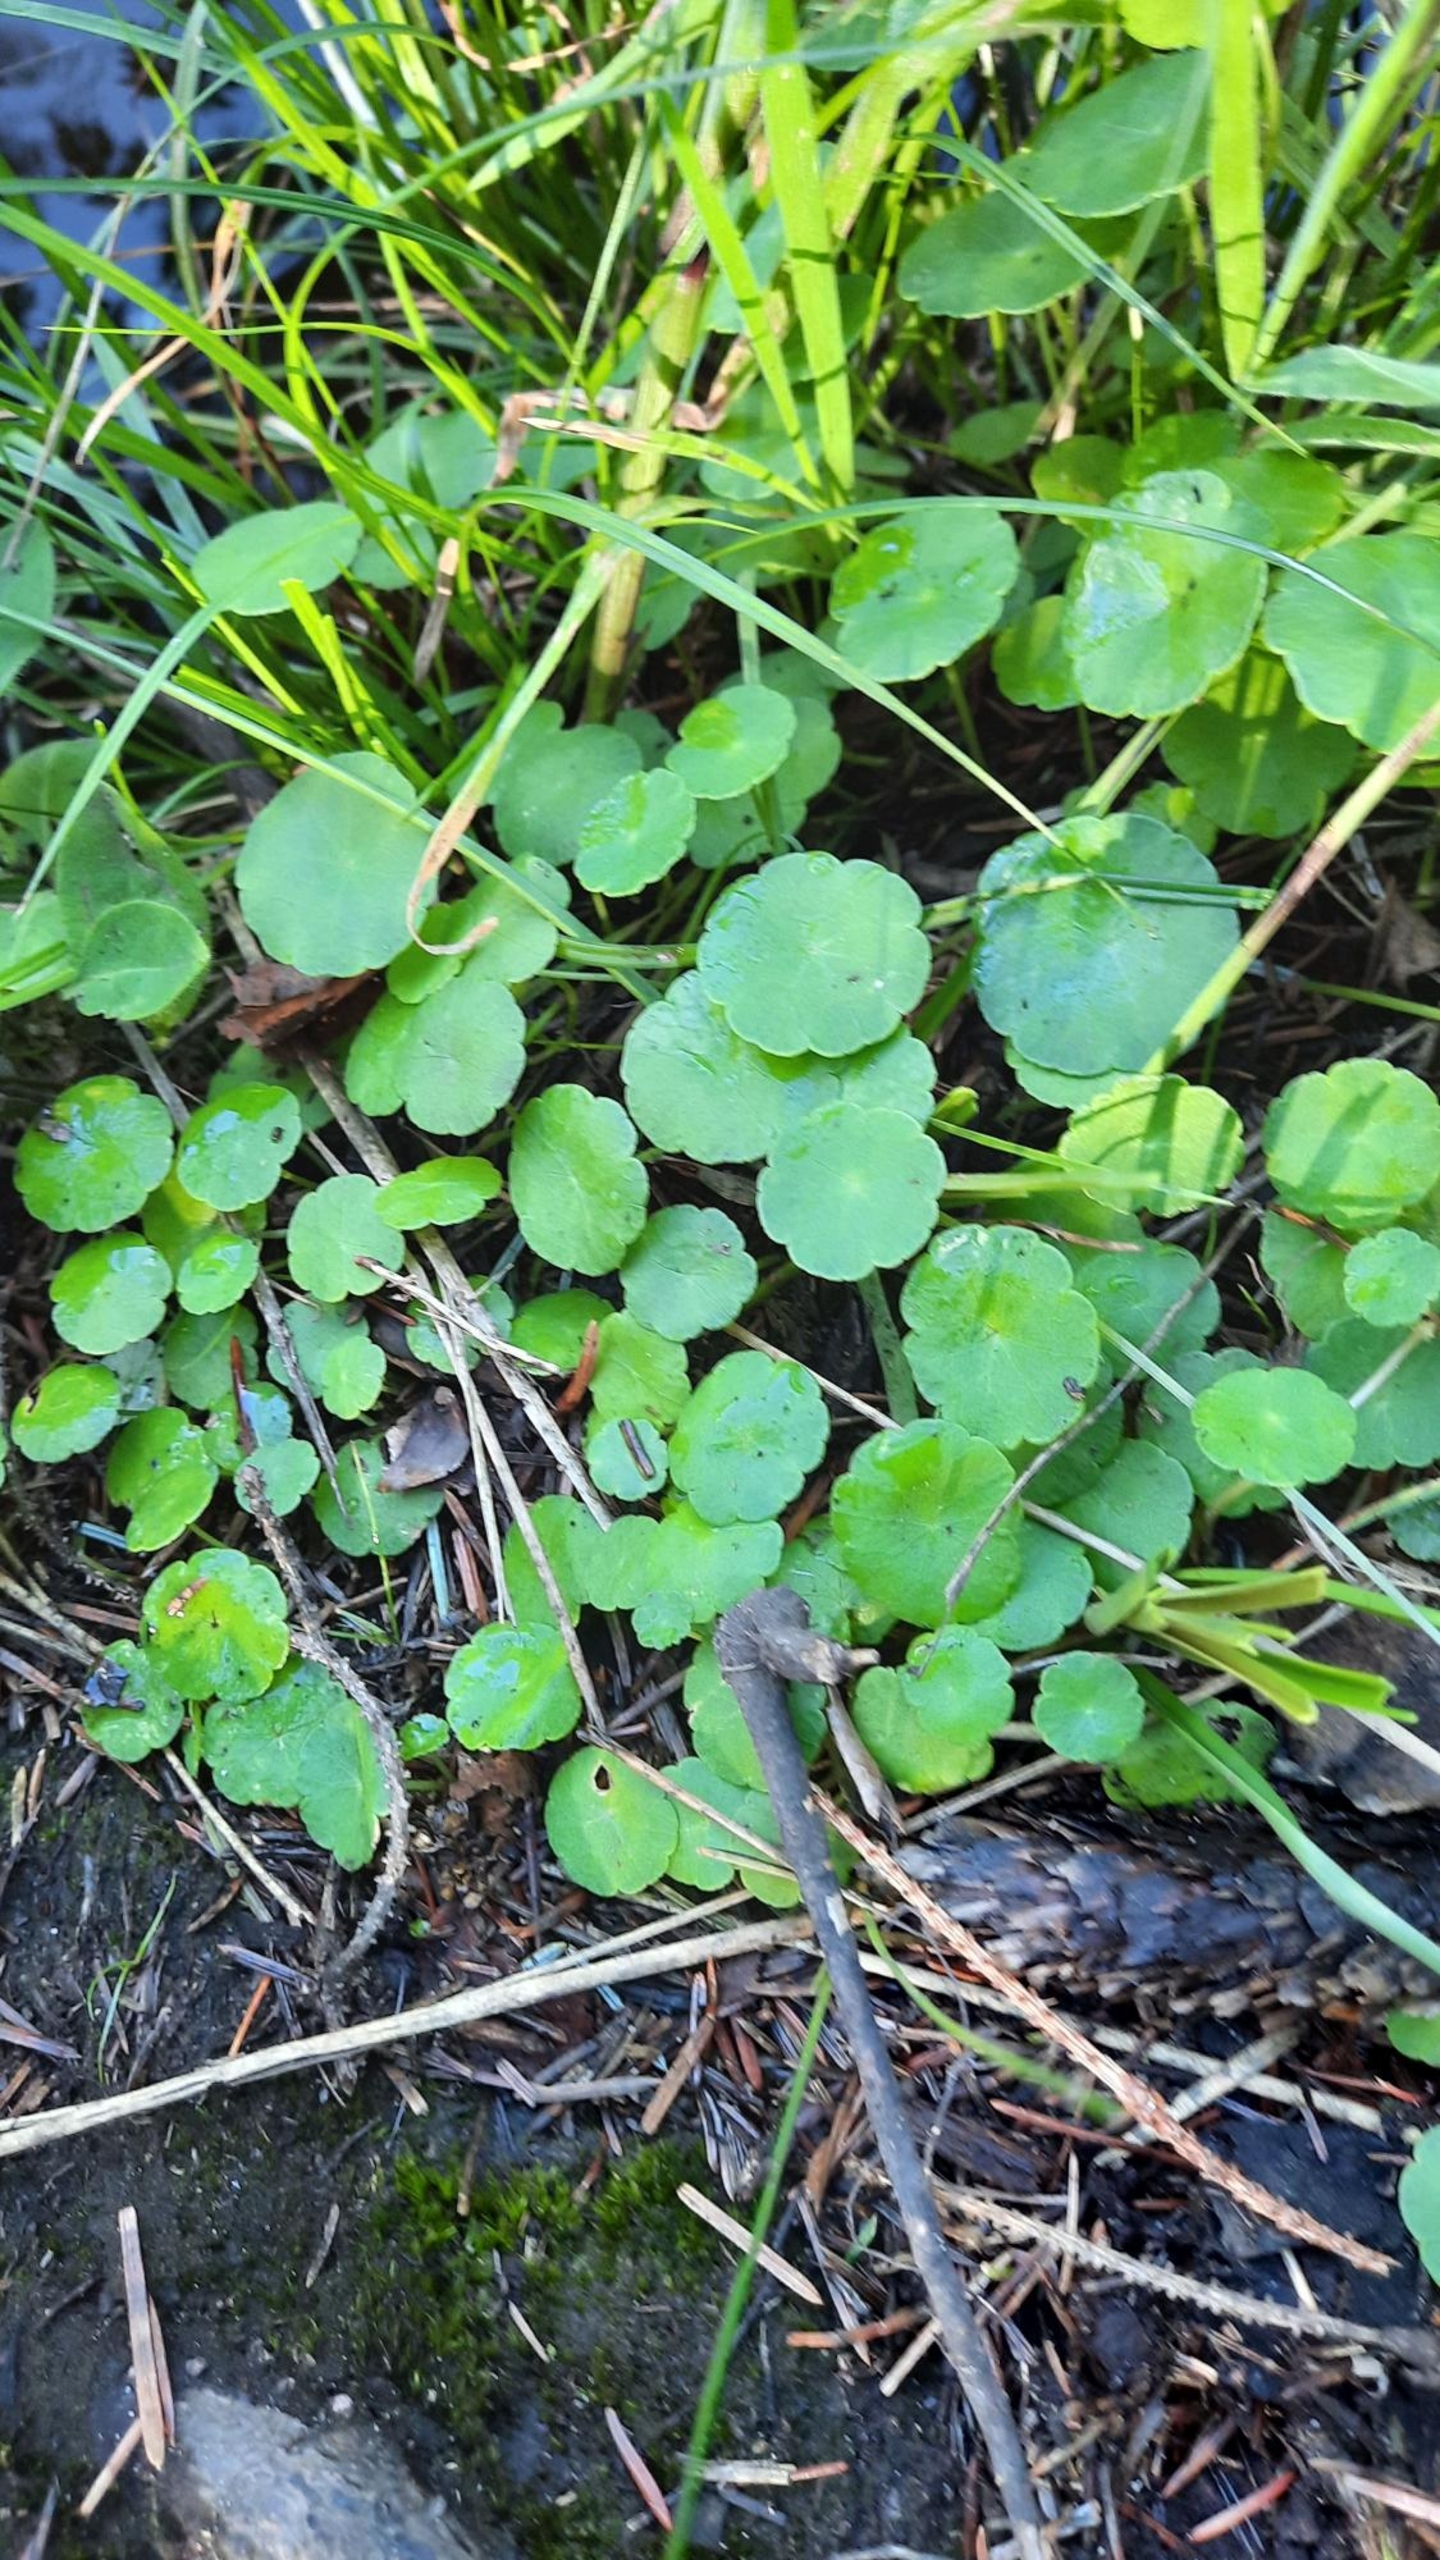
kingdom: Plantae
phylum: Tracheophyta
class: Magnoliopsida
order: Apiales
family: Araliaceae
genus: Hydrocotyle
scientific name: Hydrocotyle vulgaris
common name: Vandnavle
